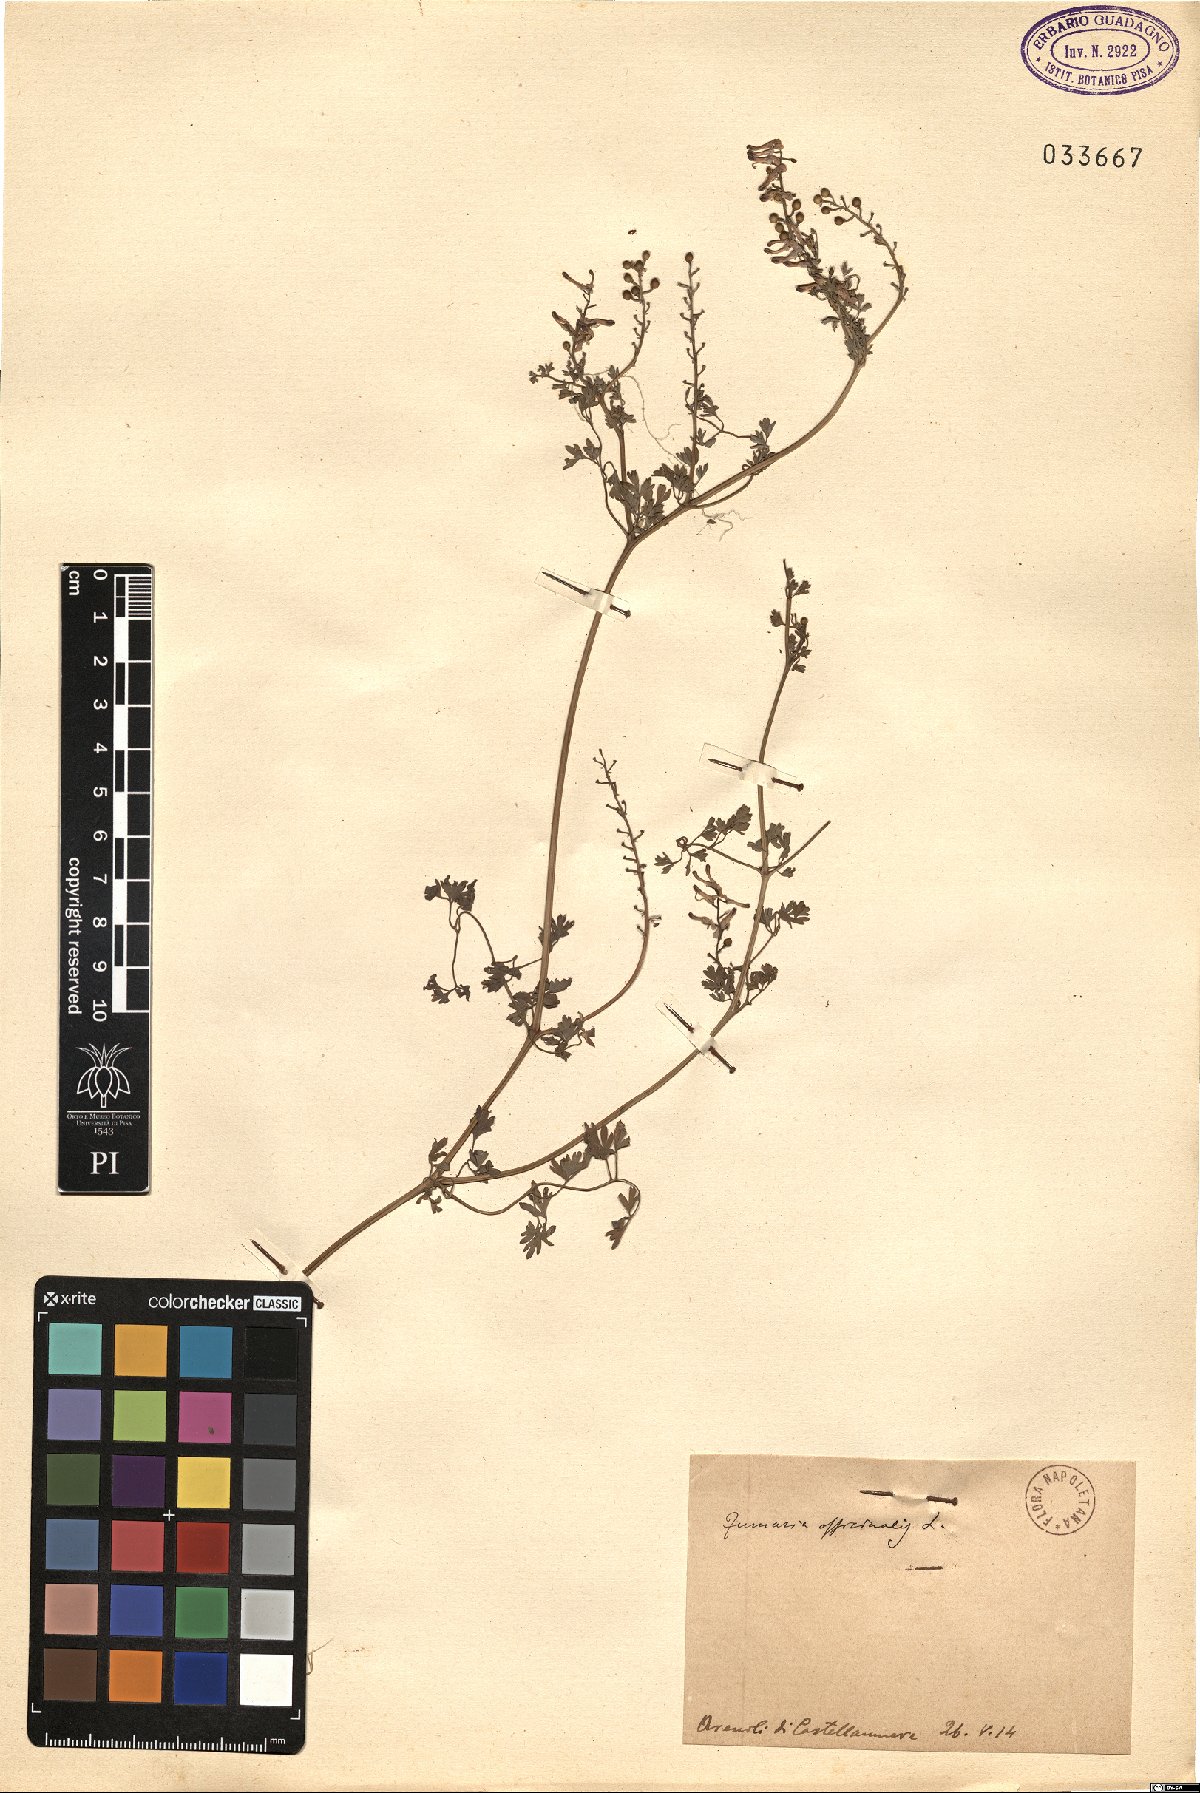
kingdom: Plantae
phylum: Tracheophyta
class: Magnoliopsida
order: Ranunculales
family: Papaveraceae
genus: Fumaria
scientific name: Fumaria officinalis
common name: Common fumitory
